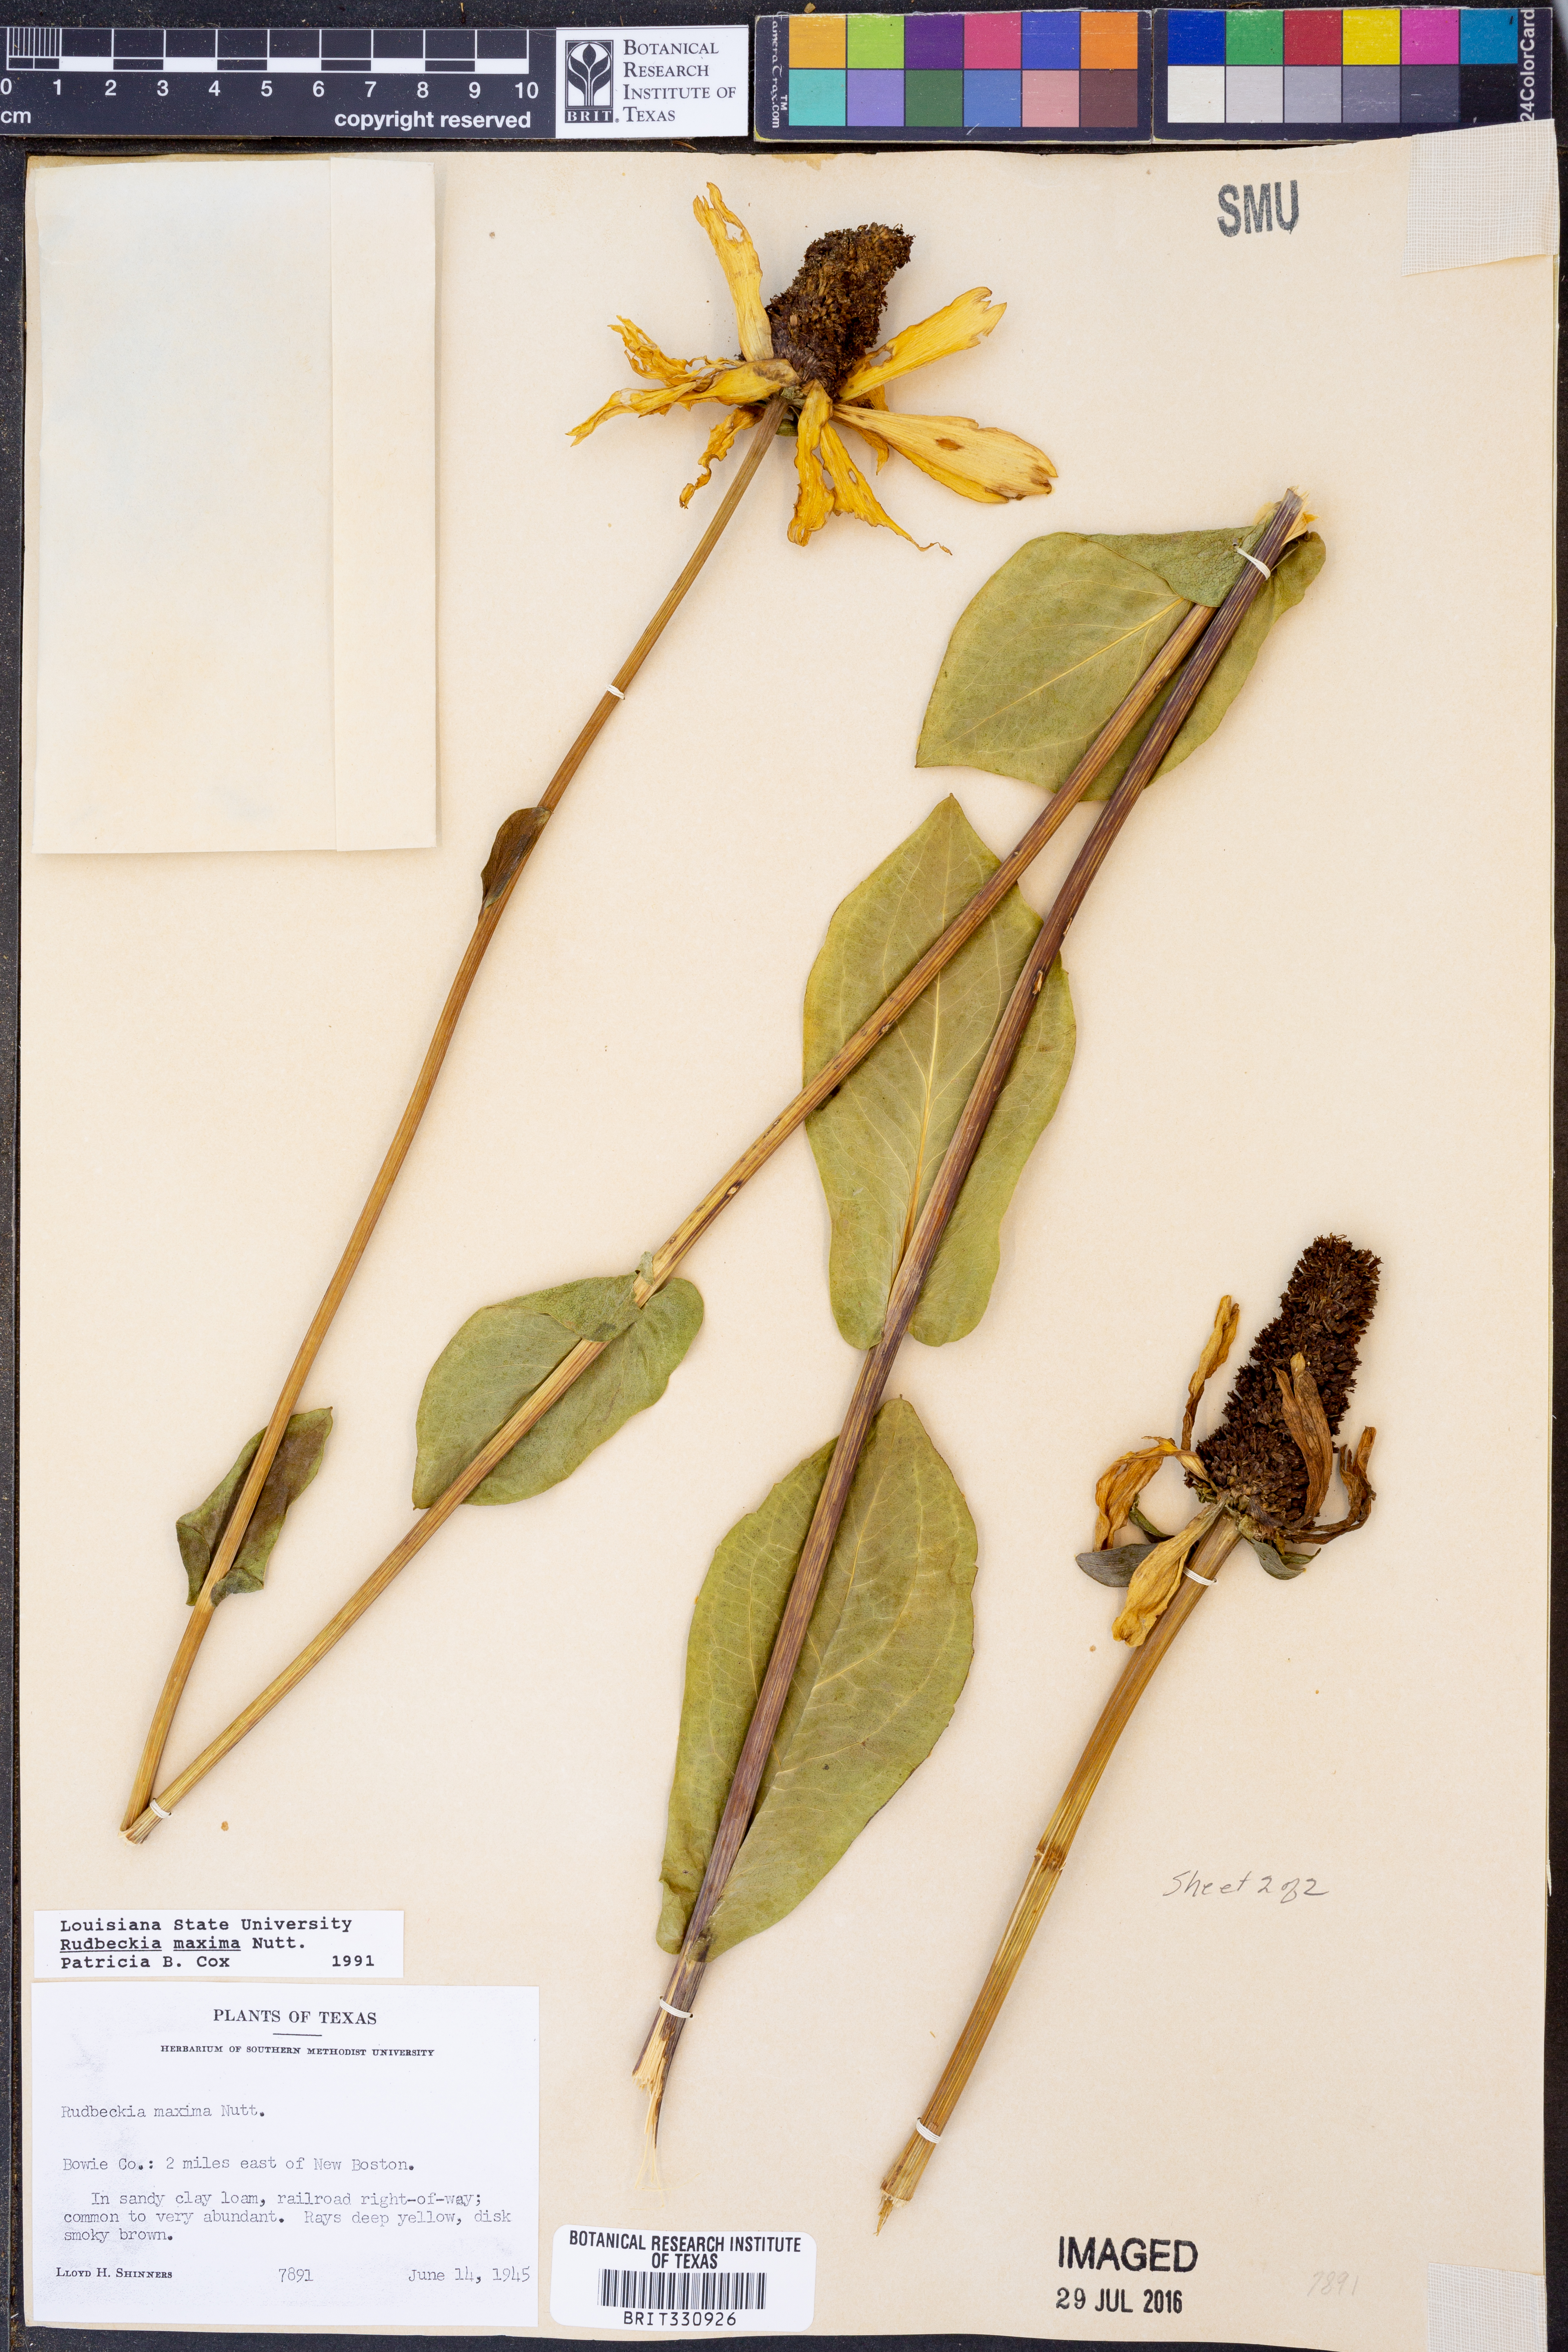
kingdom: Plantae
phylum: Tracheophyta
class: Magnoliopsida
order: Asterales
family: Asteraceae
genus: Rudbeckia
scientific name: Rudbeckia maxima
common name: Cabbage coneflower
